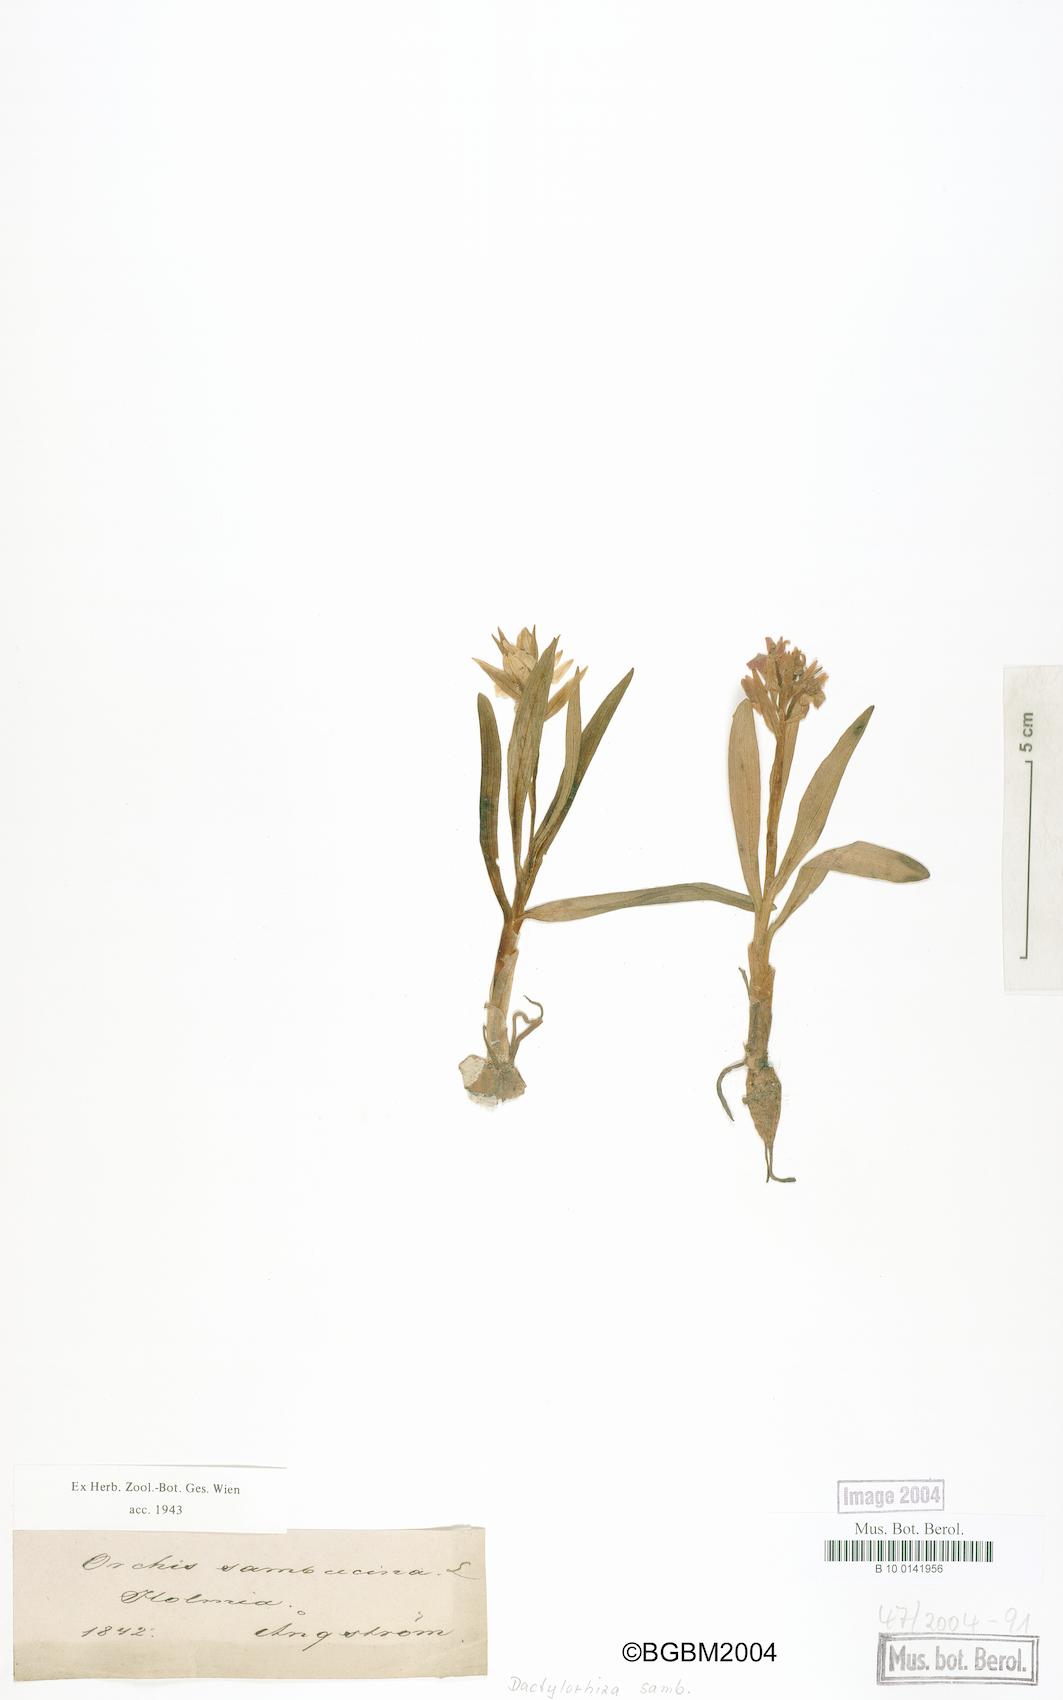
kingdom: Plantae
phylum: Tracheophyta
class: Liliopsida
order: Asparagales
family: Orchidaceae
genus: Dactylorhiza
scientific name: Dactylorhiza sambucina
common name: Elder-flowered orchid
